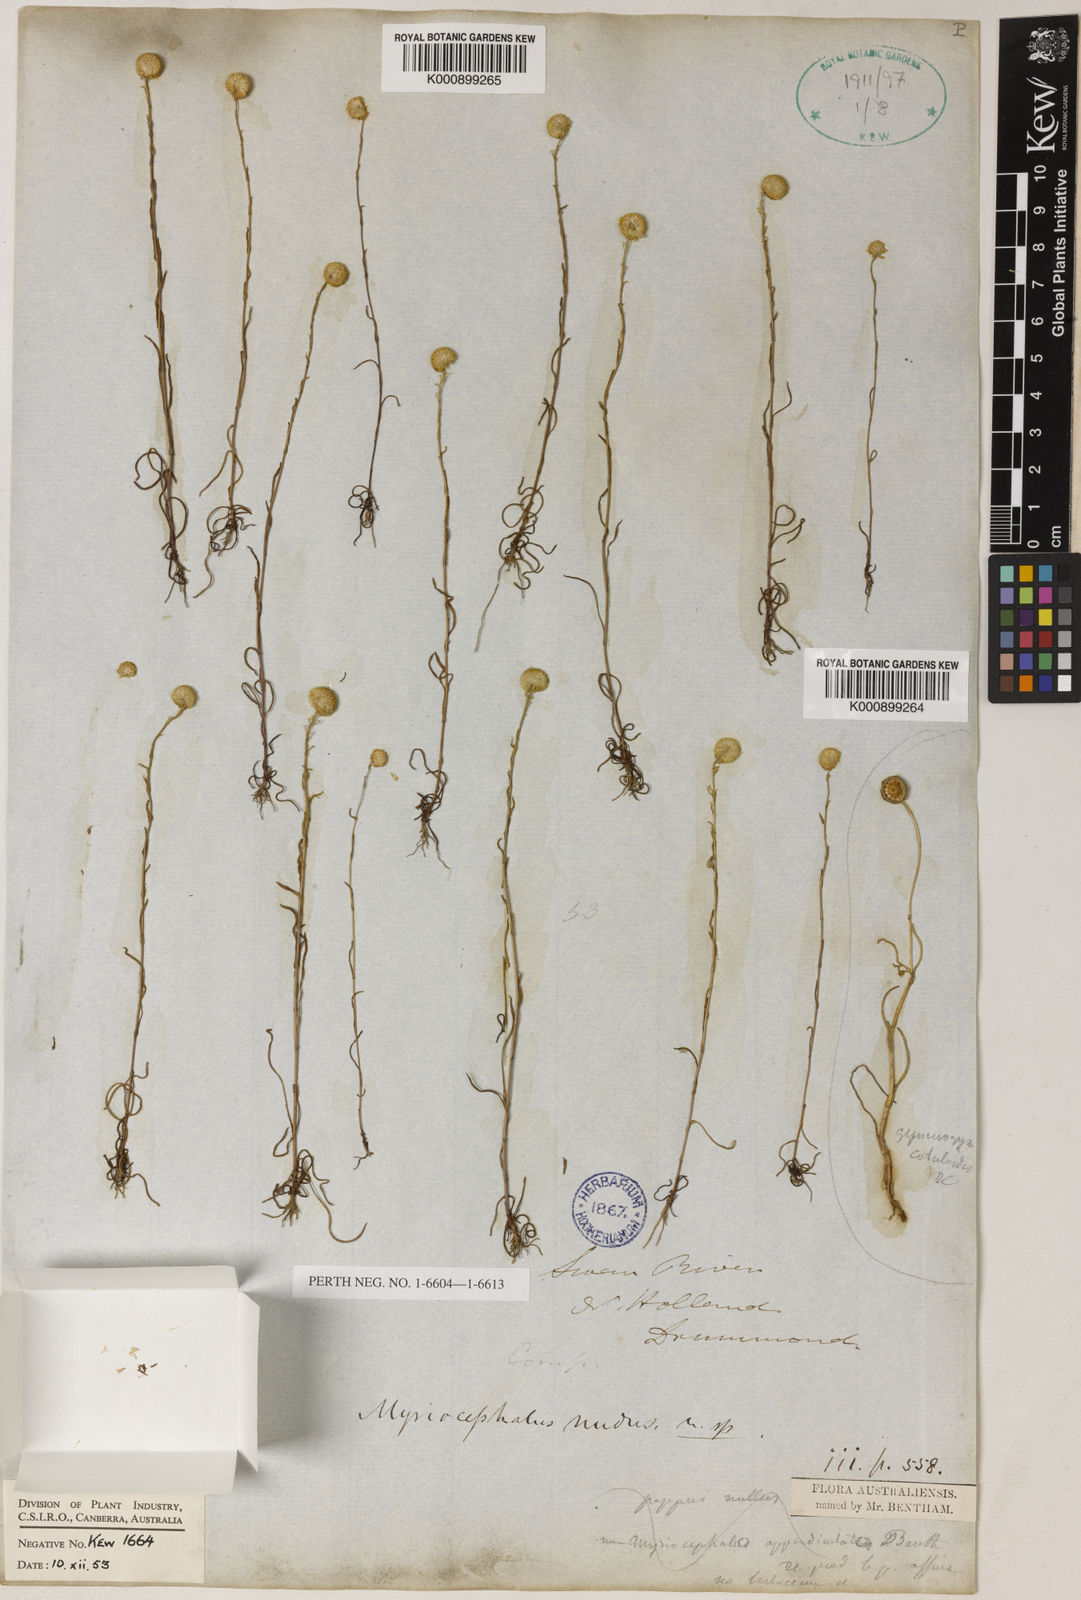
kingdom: Plantae
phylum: Tracheophyta
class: Magnoliopsida
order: Asterales
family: Asteraceae
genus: Myriocephalus
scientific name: Myriocephalus nudus
